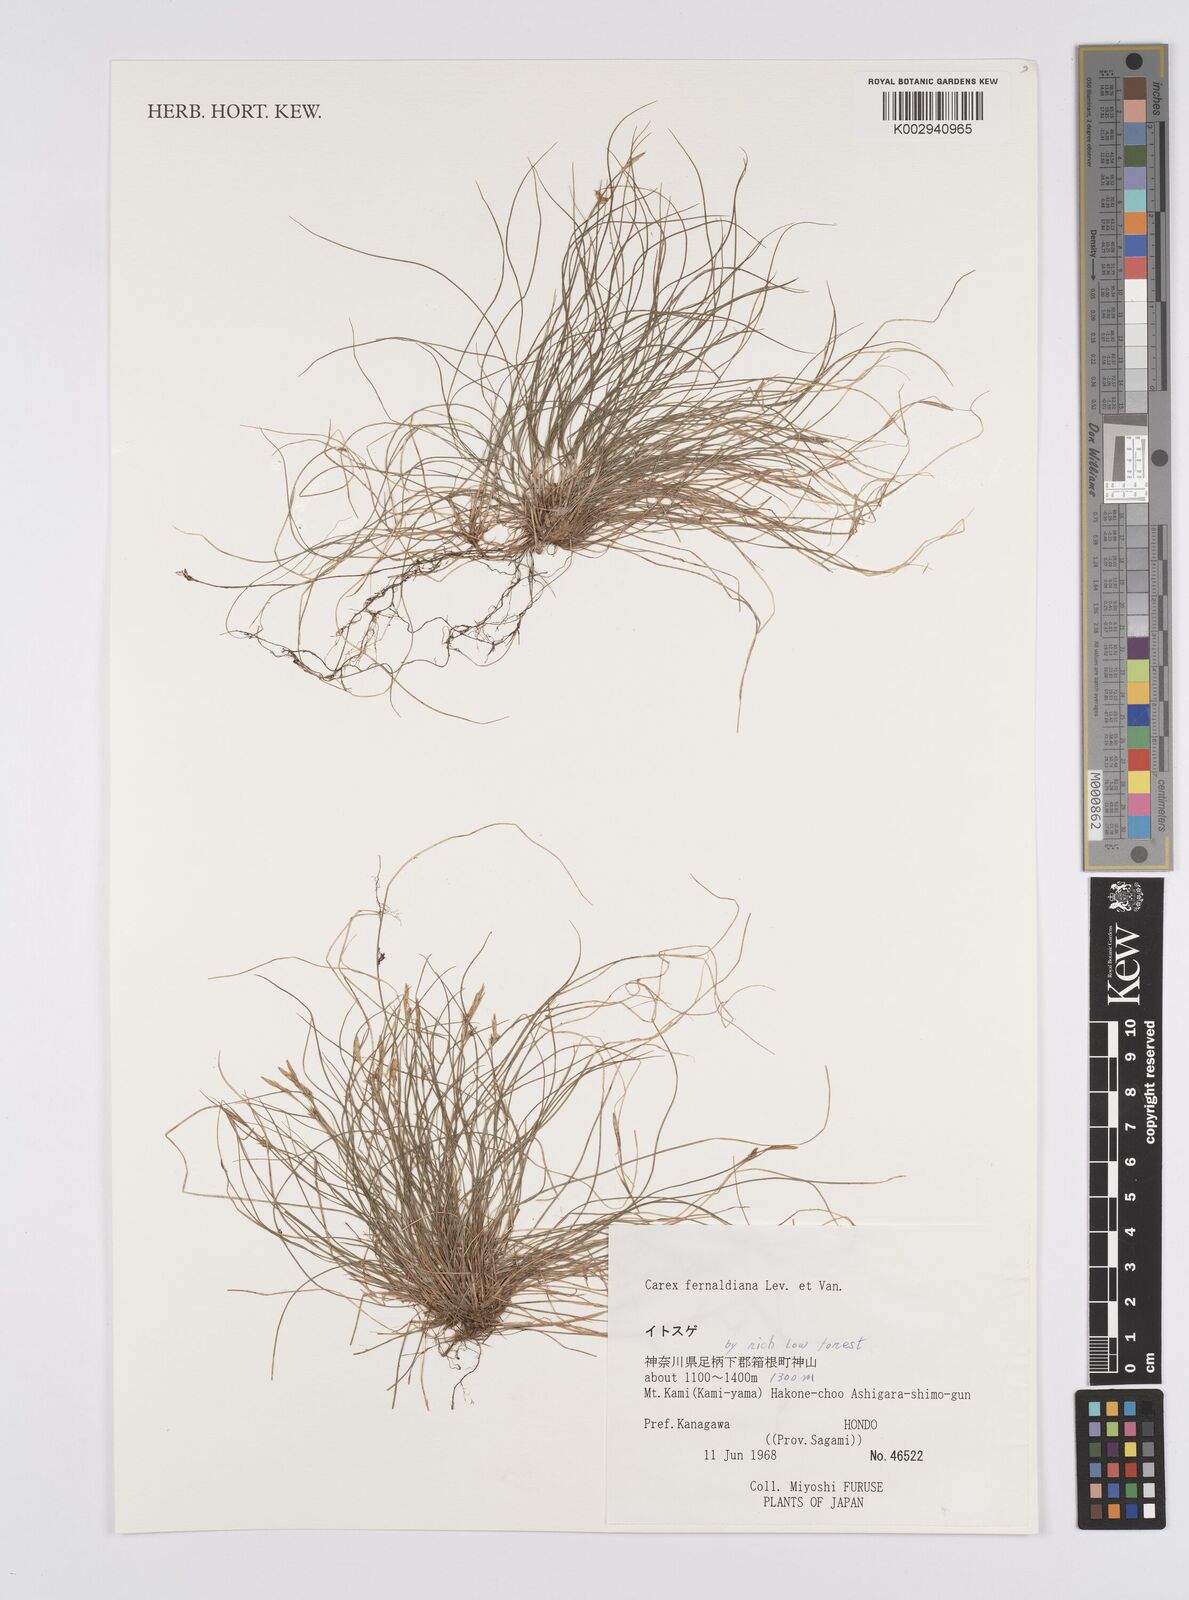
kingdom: Plantae
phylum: Tracheophyta
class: Liliopsida
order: Poales
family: Cyperaceae
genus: Carex
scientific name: Carex fibrillosa
